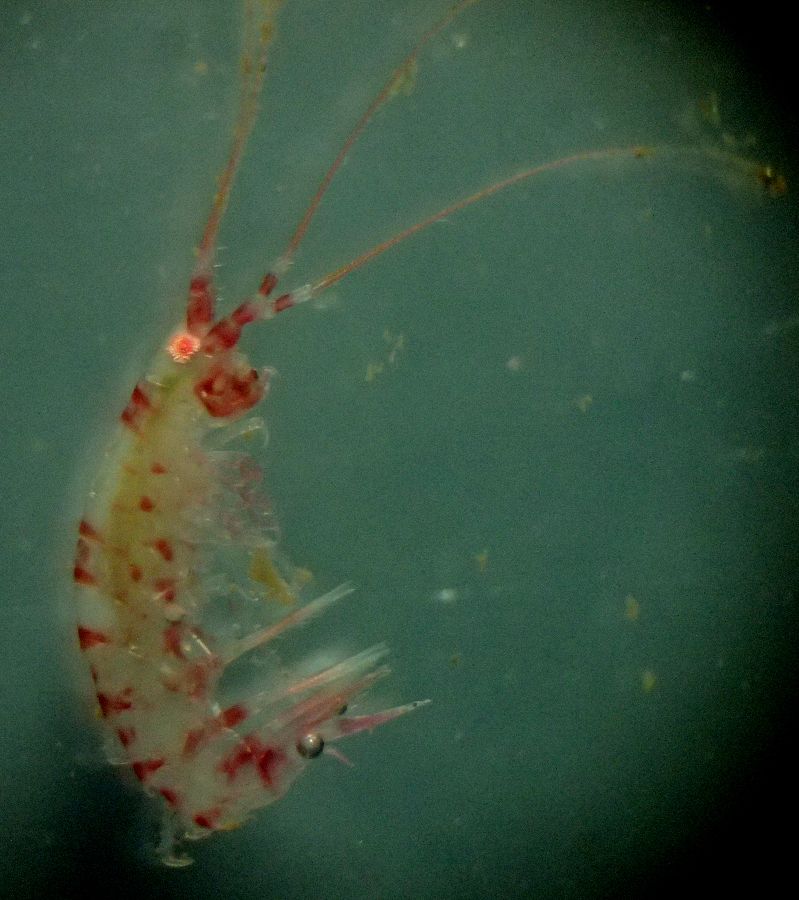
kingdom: Animalia
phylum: Arthropoda
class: Malacostraca
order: Amphipoda
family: Calliopiidae
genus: Halirages
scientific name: Halirages fulvocinctus
